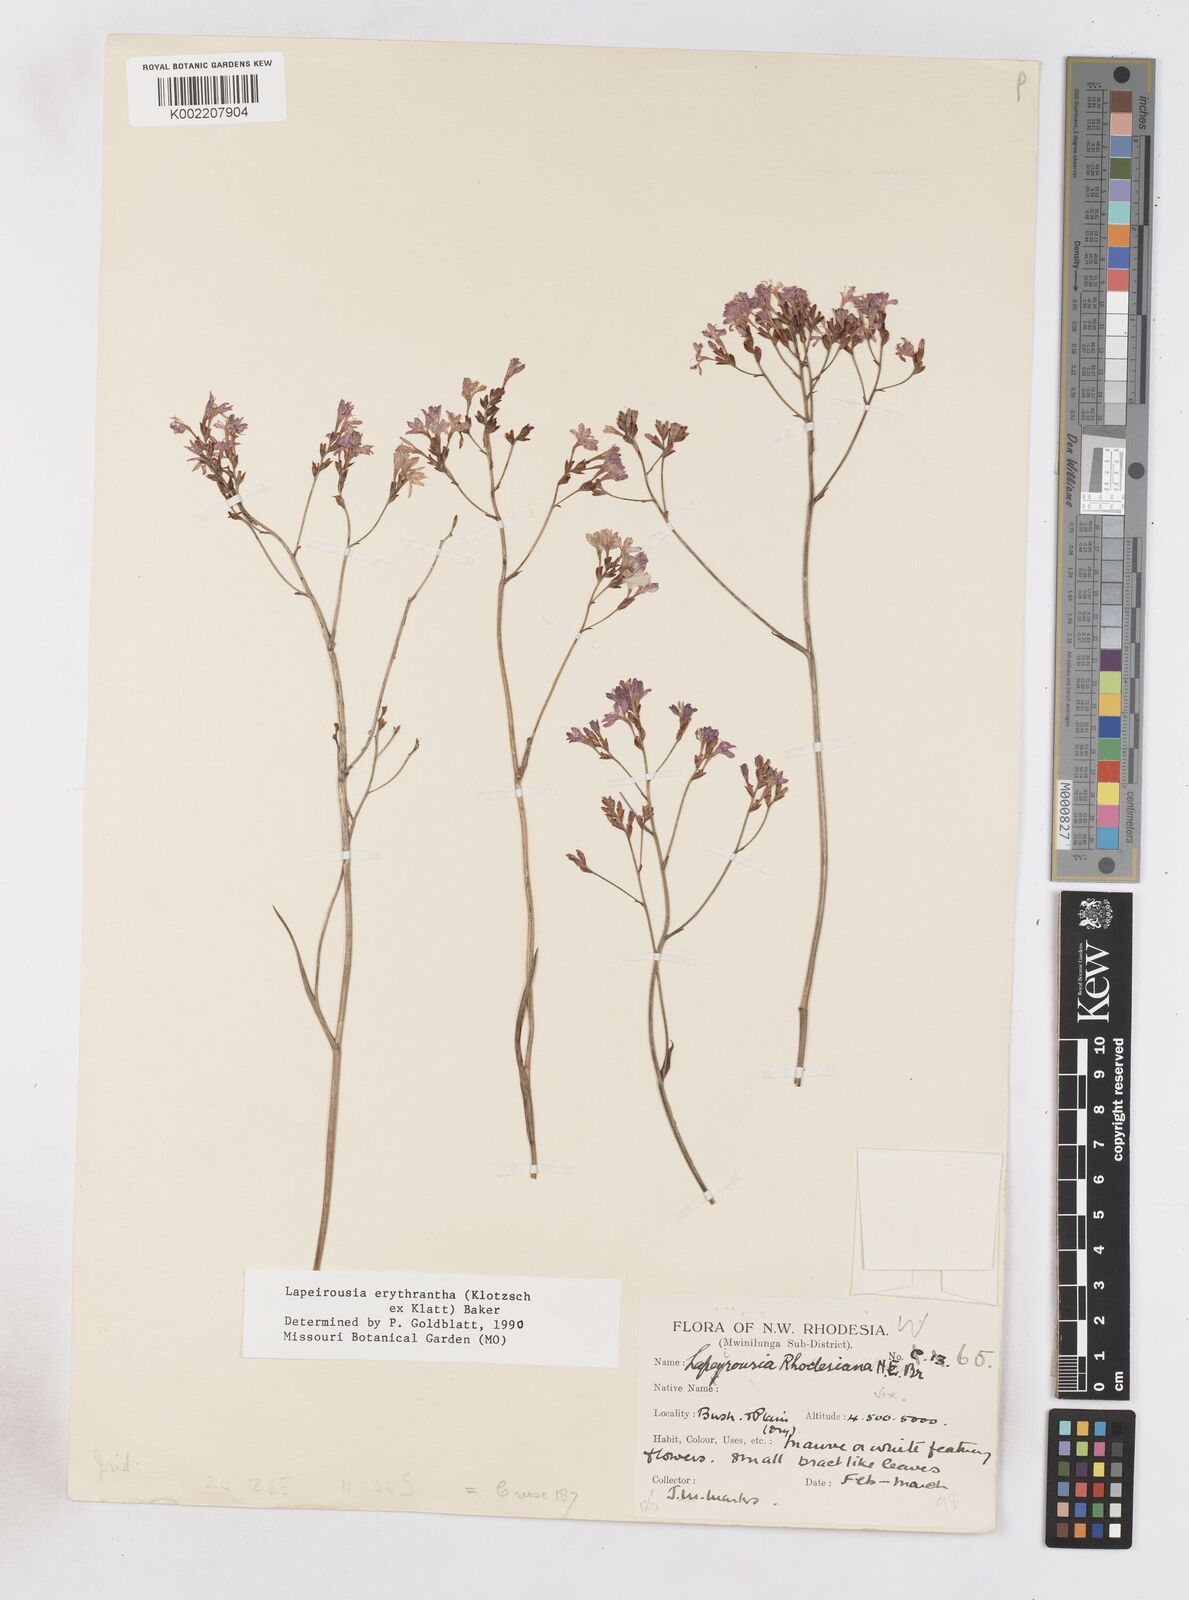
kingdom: Plantae
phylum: Tracheophyta
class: Liliopsida
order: Asparagales
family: Iridaceae
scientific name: Iridaceae
